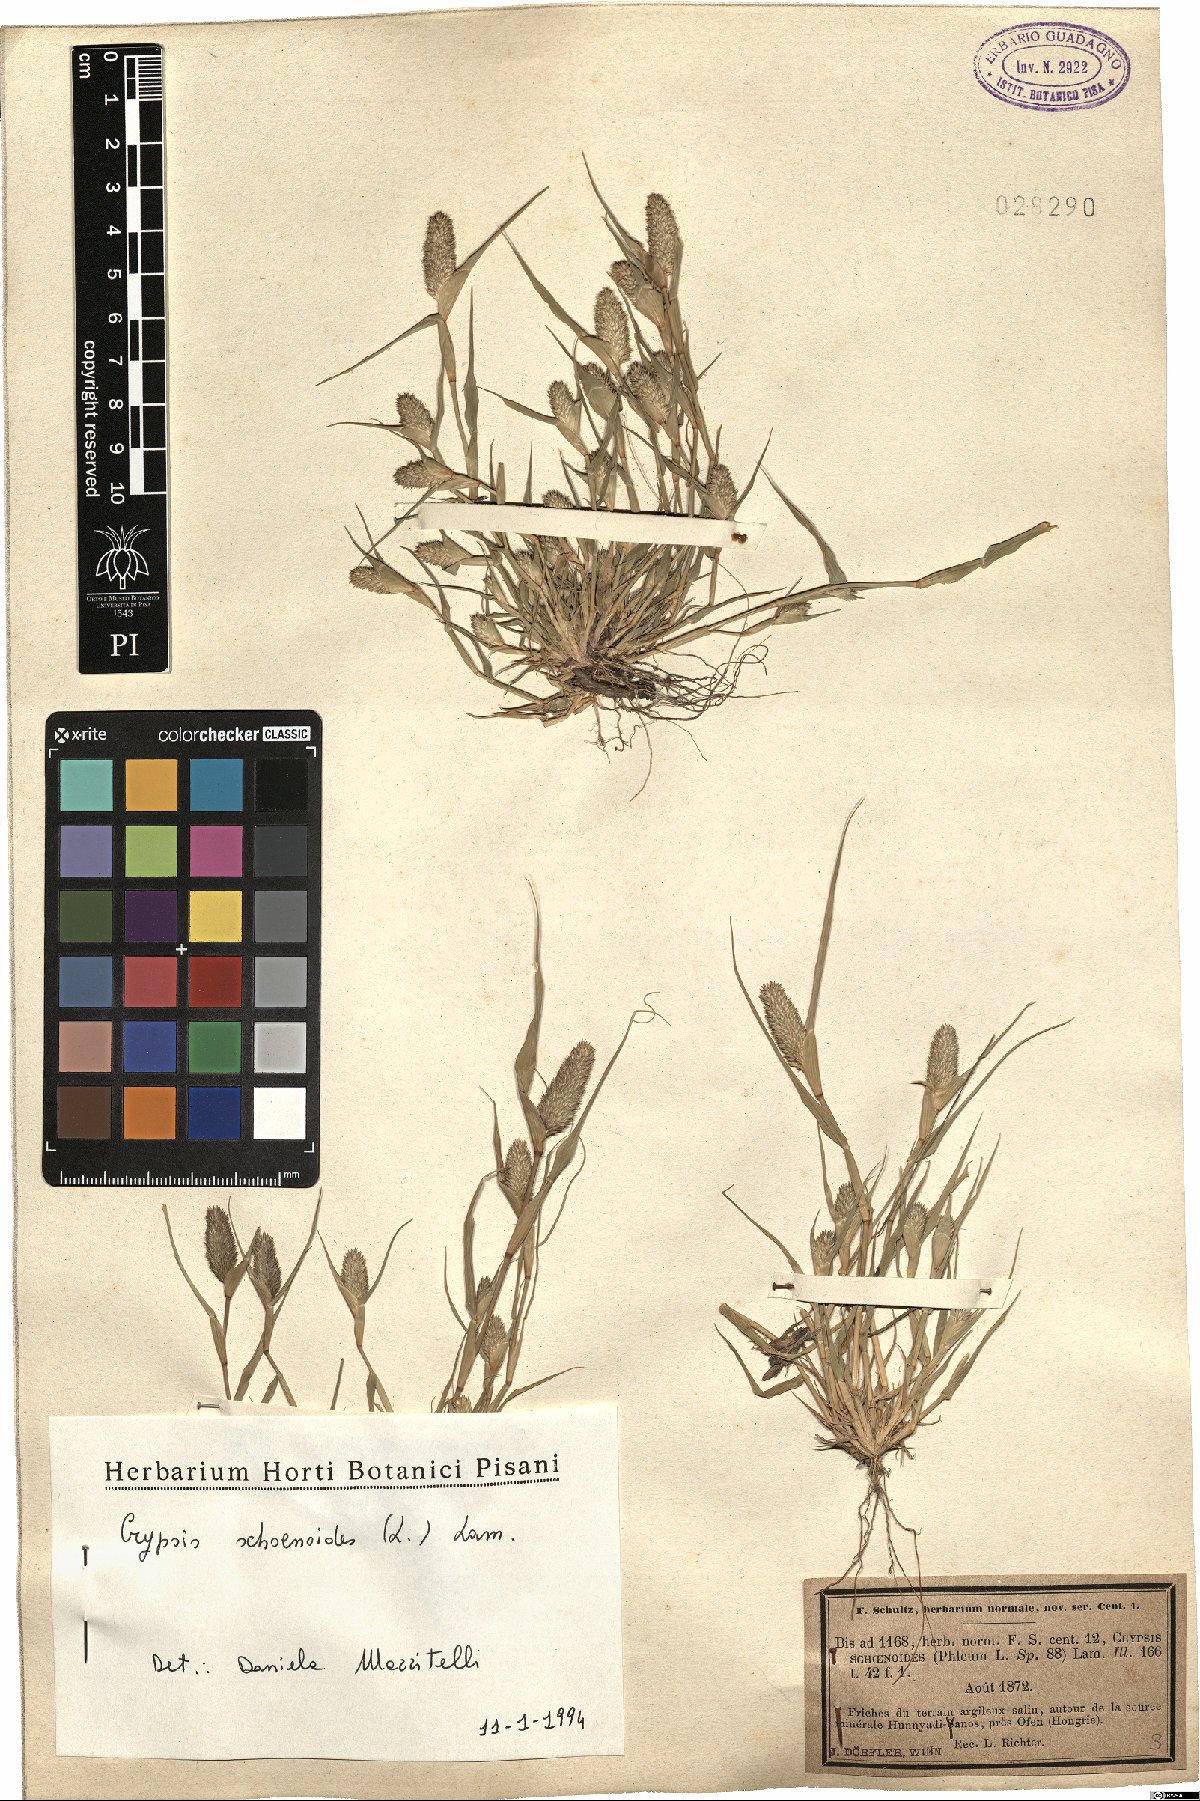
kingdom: Plantae
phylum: Tracheophyta
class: Liliopsida
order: Poales
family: Poaceae
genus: Sporobolus
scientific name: Sporobolus schoenoides
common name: Rush-like timothy
